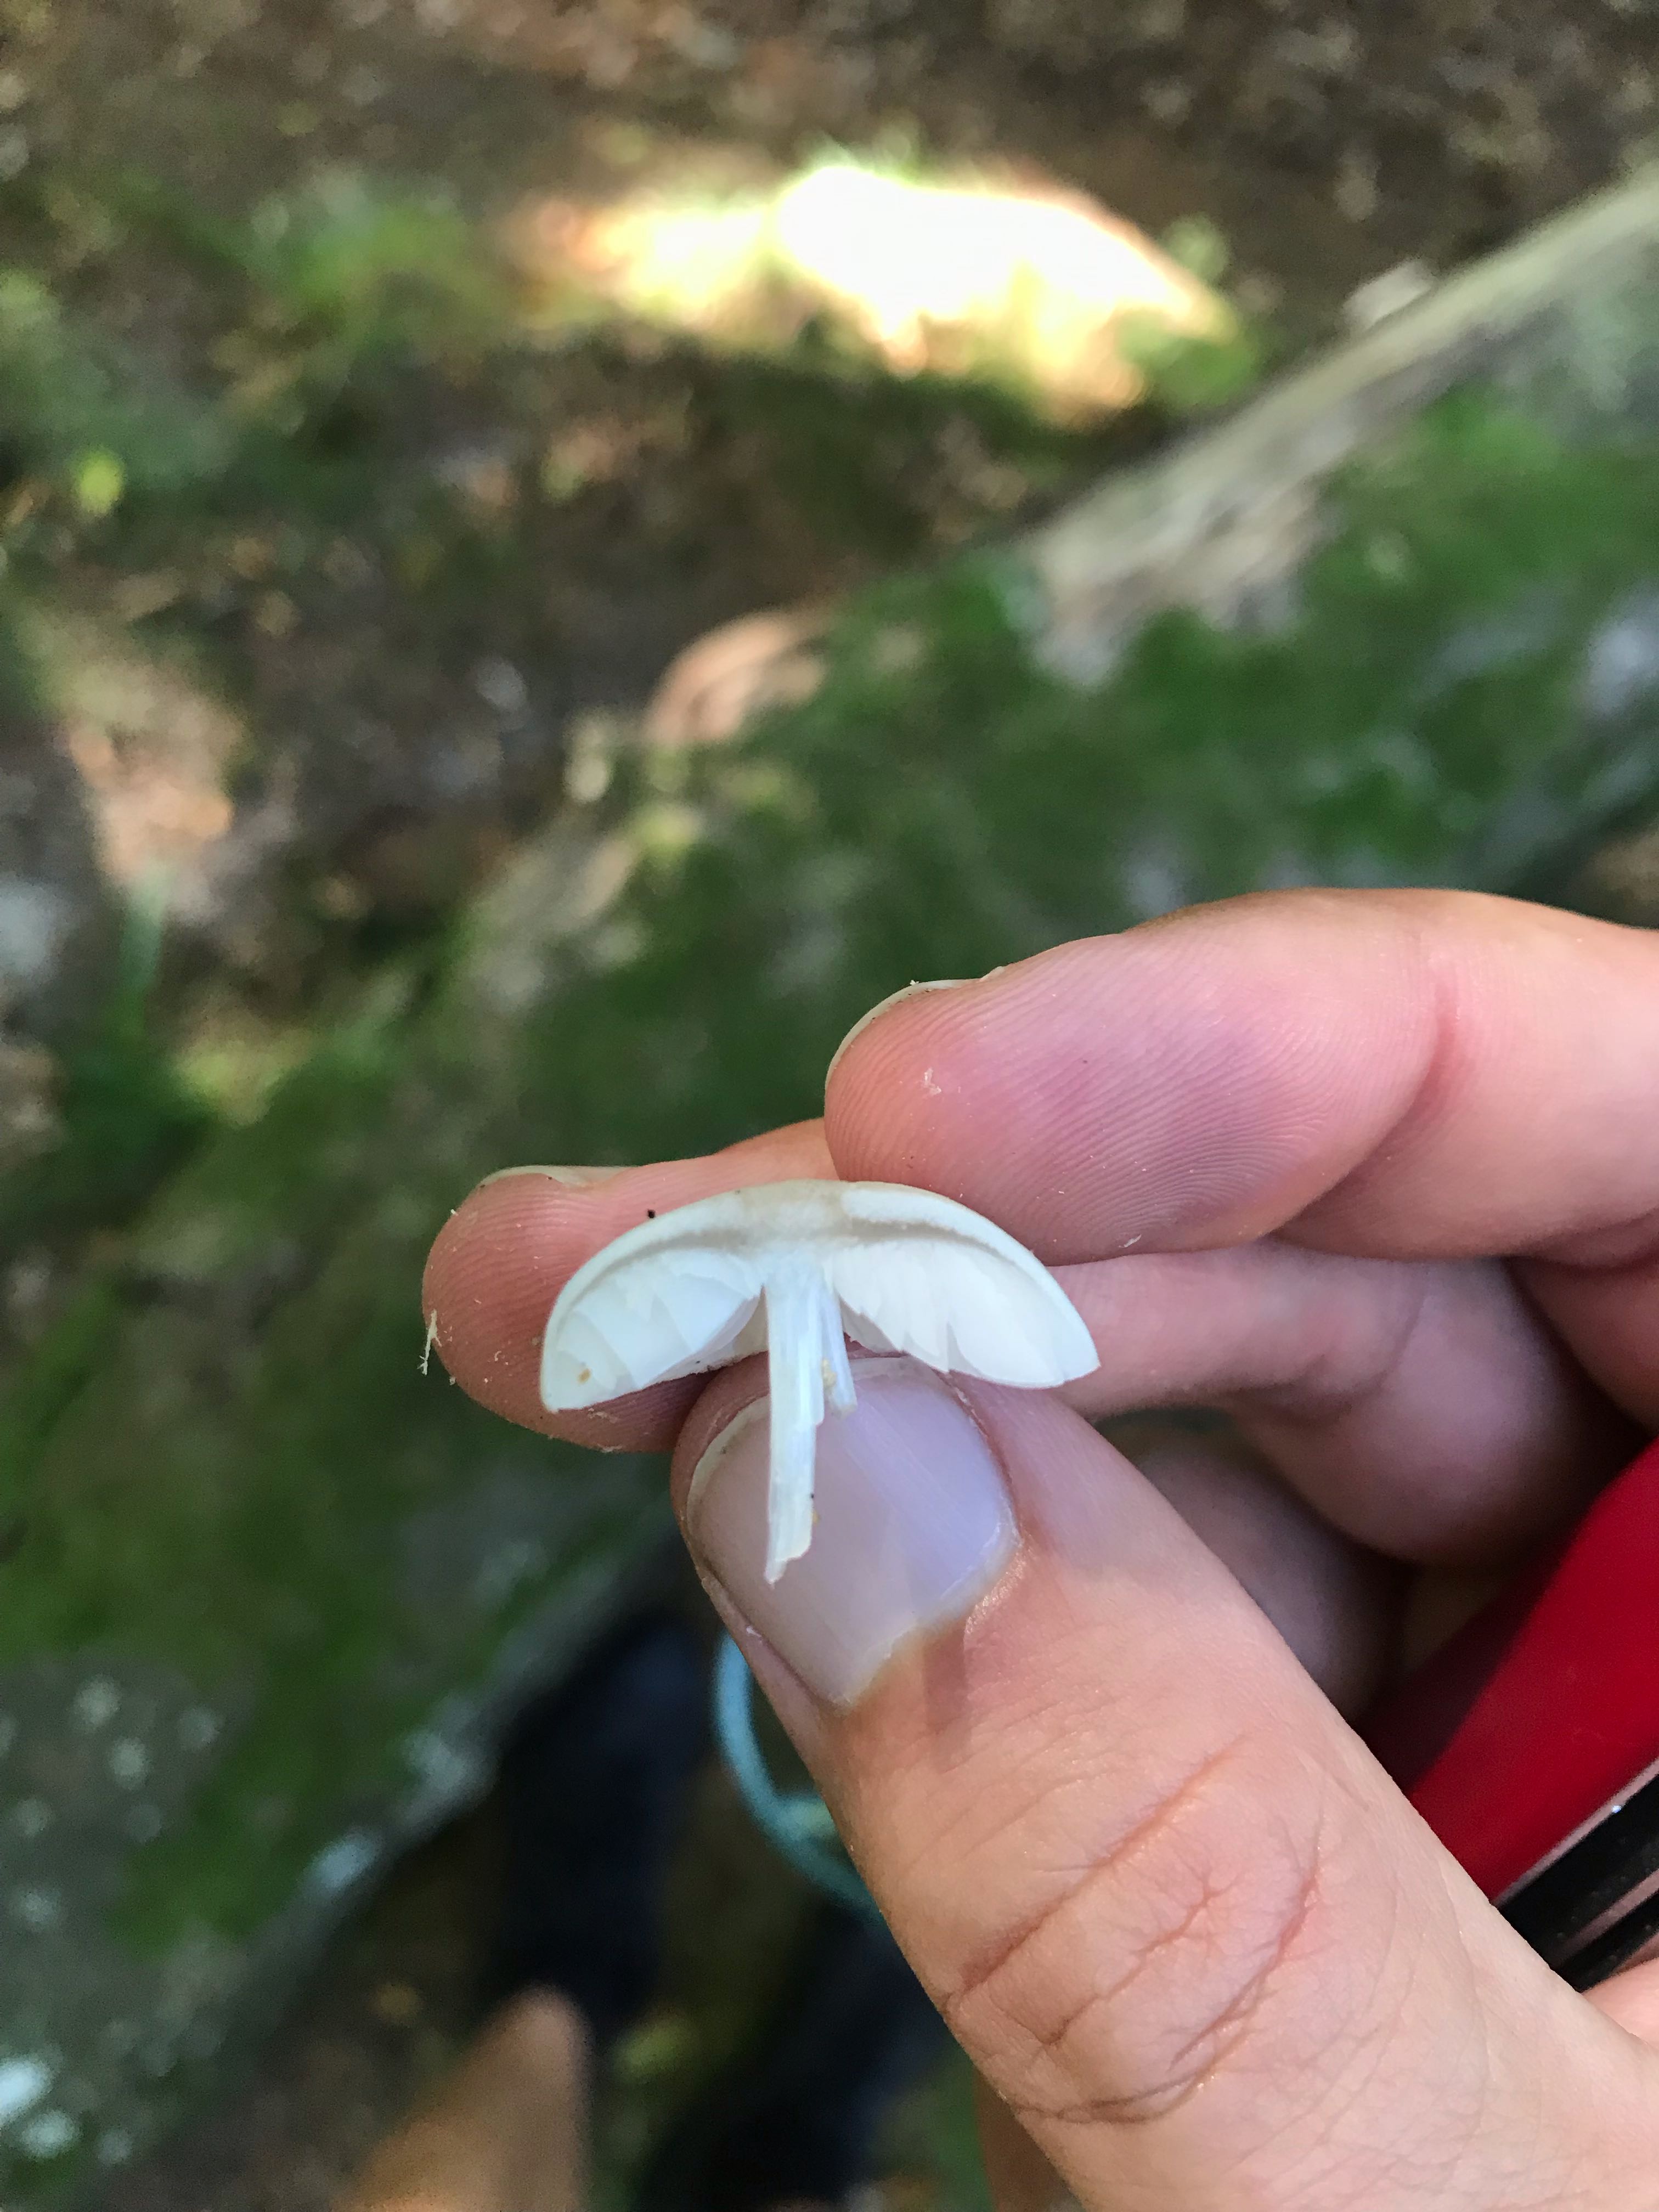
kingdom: Fungi
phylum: Basidiomycota
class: Agaricomycetes
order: Agaricales
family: Pluteaceae
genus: Pluteus
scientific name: Pluteus
